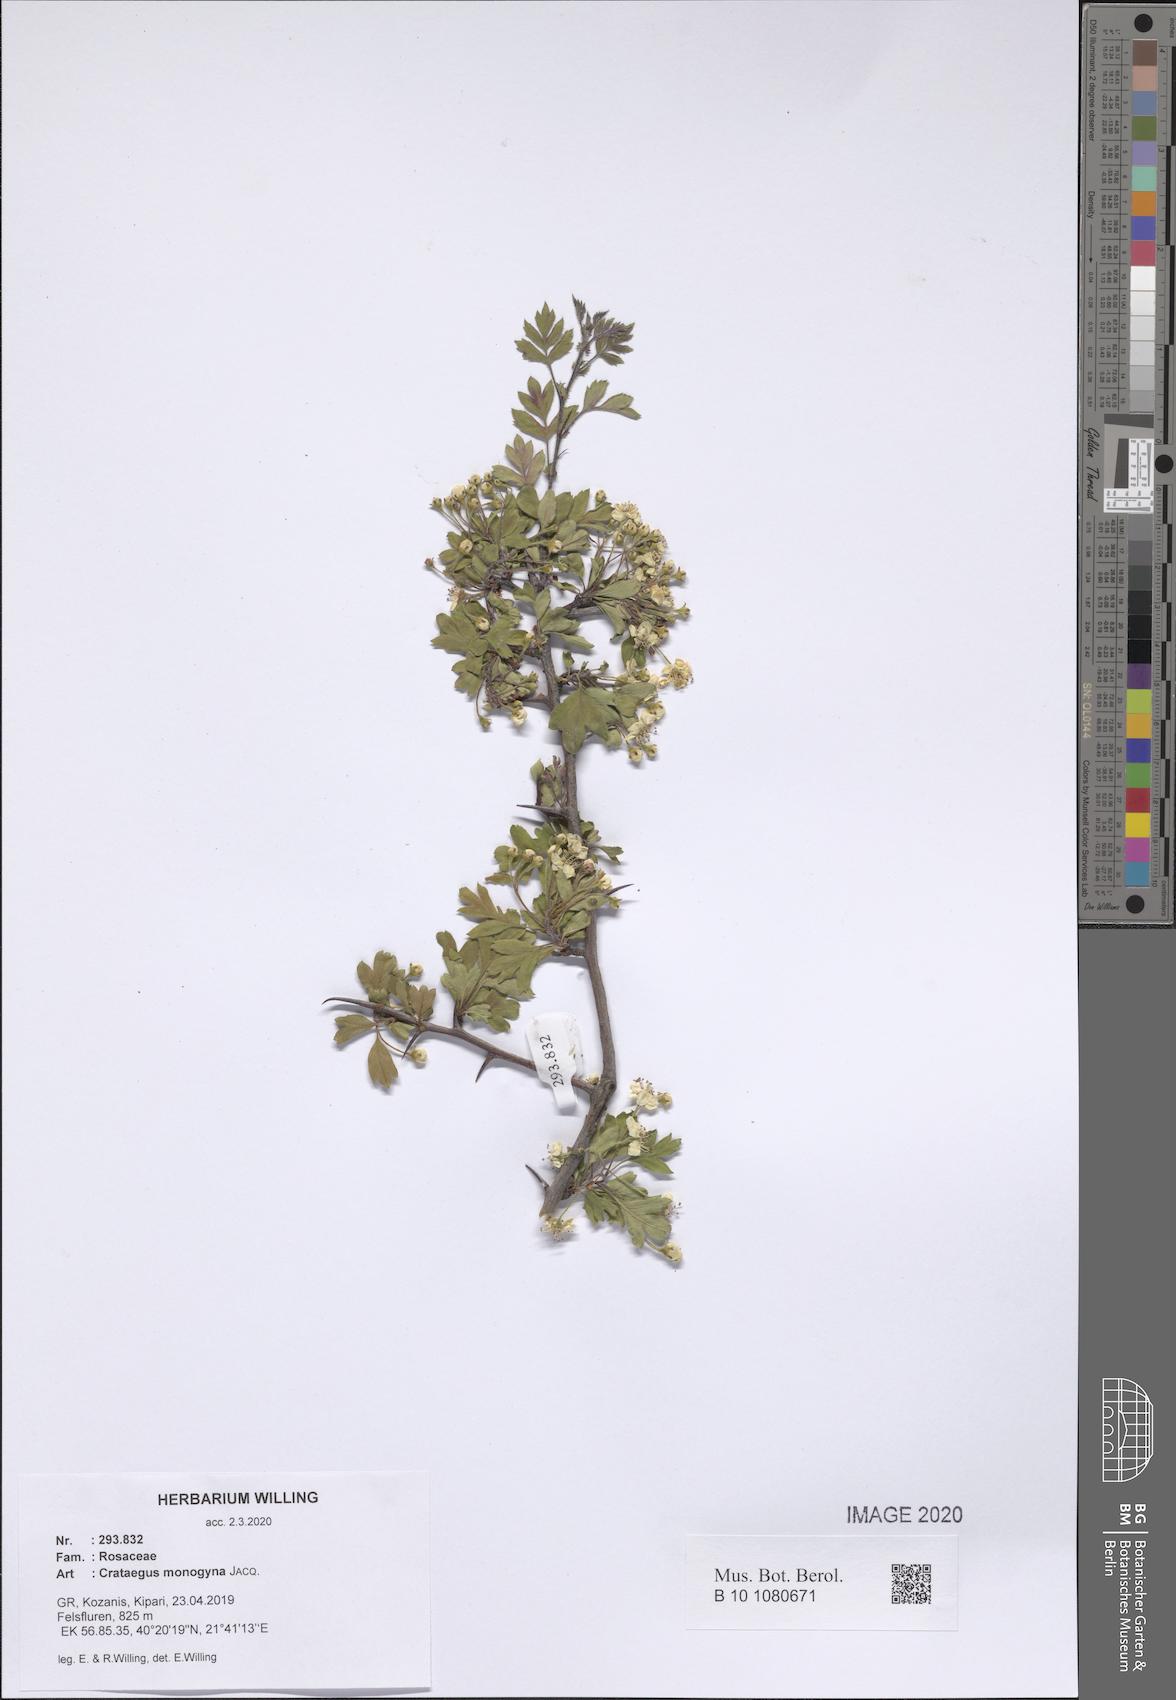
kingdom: Plantae
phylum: Tracheophyta
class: Magnoliopsida
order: Rosales
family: Rosaceae
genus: Crataegus
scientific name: Crataegus monogyna
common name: Hawthorn
